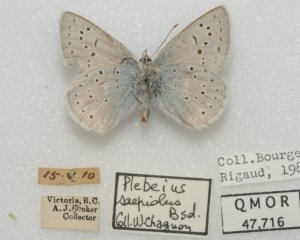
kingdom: Animalia
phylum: Arthropoda
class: Insecta
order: Lepidoptera
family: Lycaenidae
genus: Plebejus
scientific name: Plebejus saepiolus
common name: Greenish Blue
